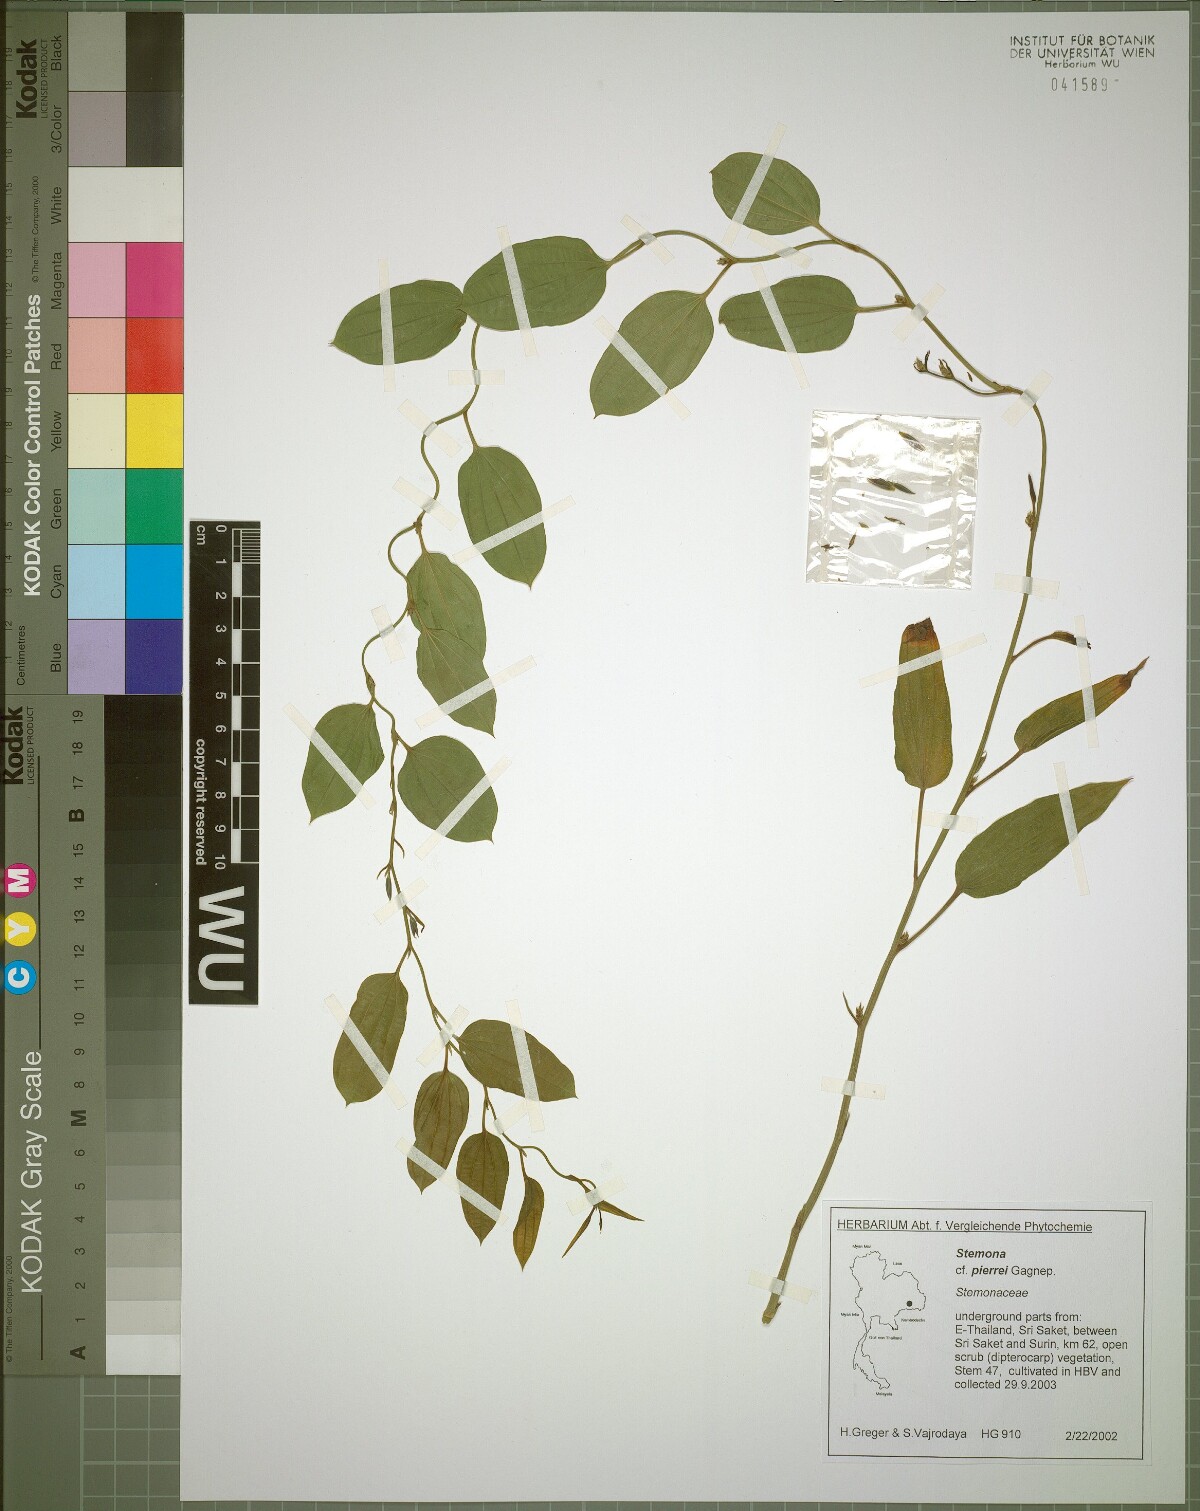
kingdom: Plantae
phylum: Tracheophyta
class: Liliopsida
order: Pandanales
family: Stemonaceae
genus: Stemona
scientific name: Stemona pierrei
